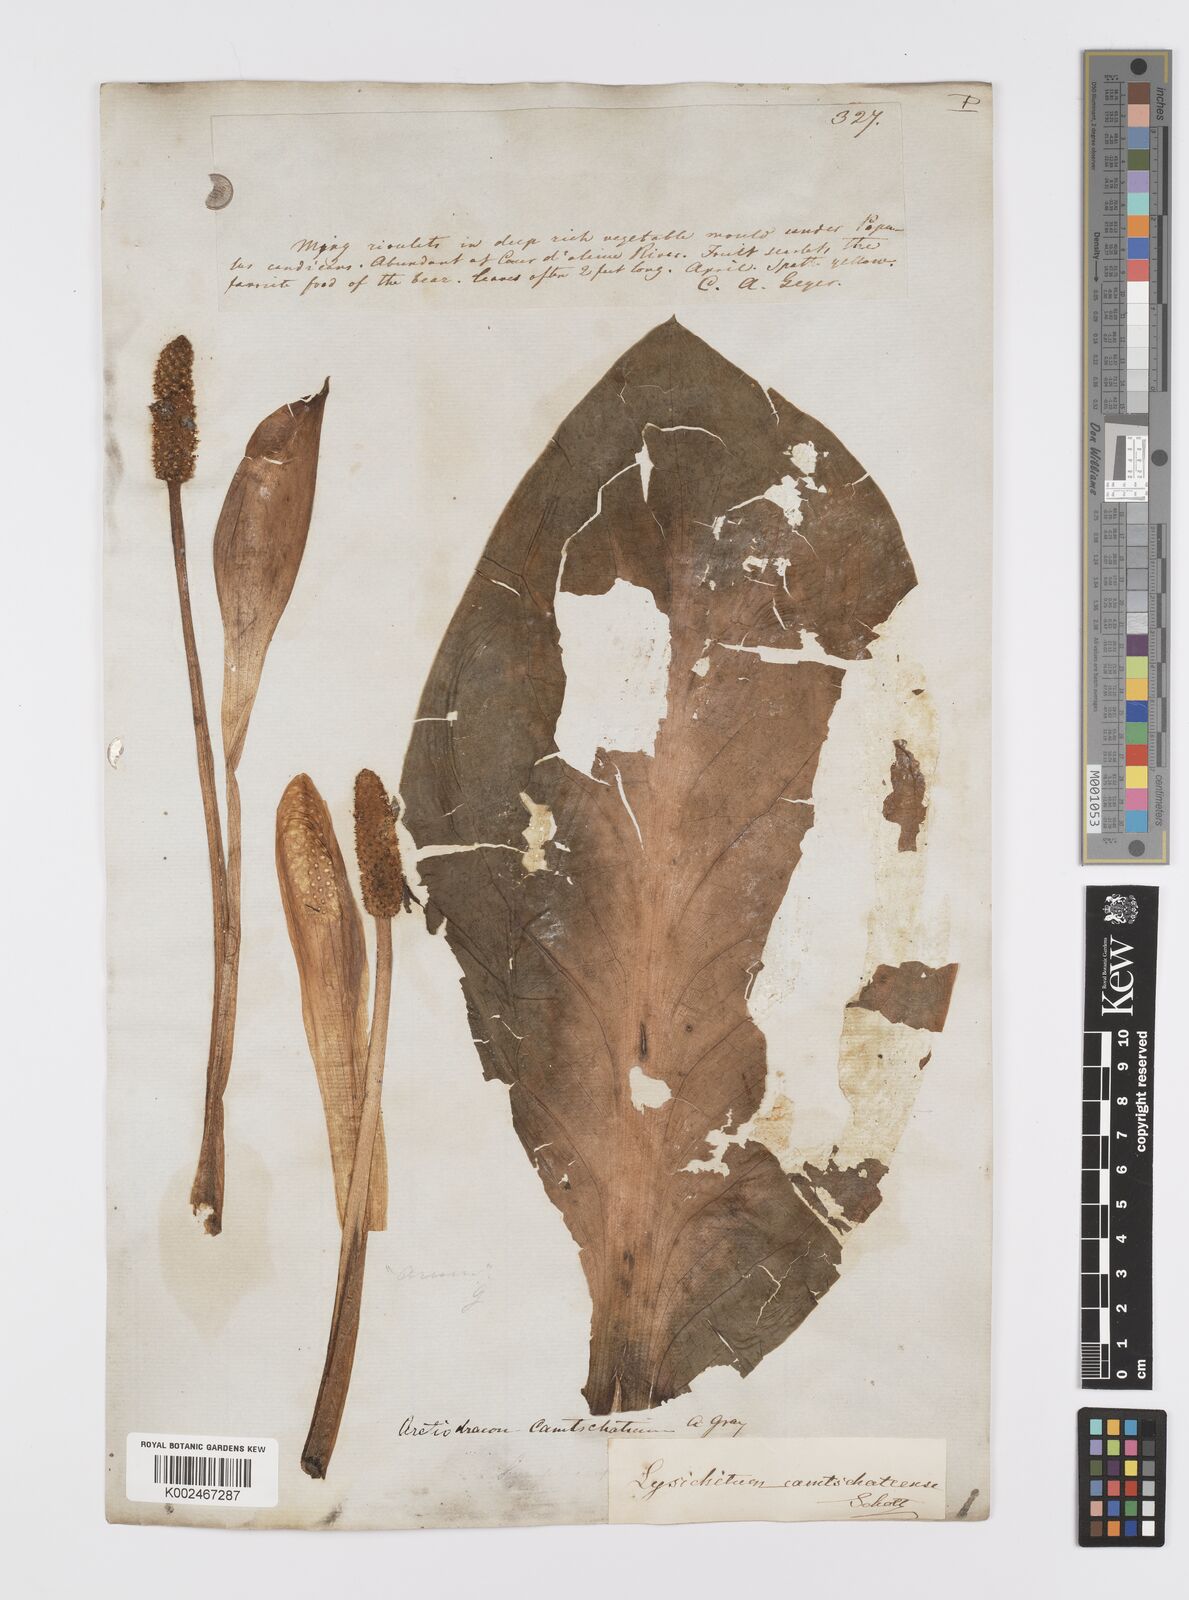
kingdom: Plantae
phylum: Tracheophyta
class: Liliopsida
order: Alismatales
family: Araceae
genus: Lysichiton
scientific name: Lysichiton americanus
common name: American skunk cabbage
